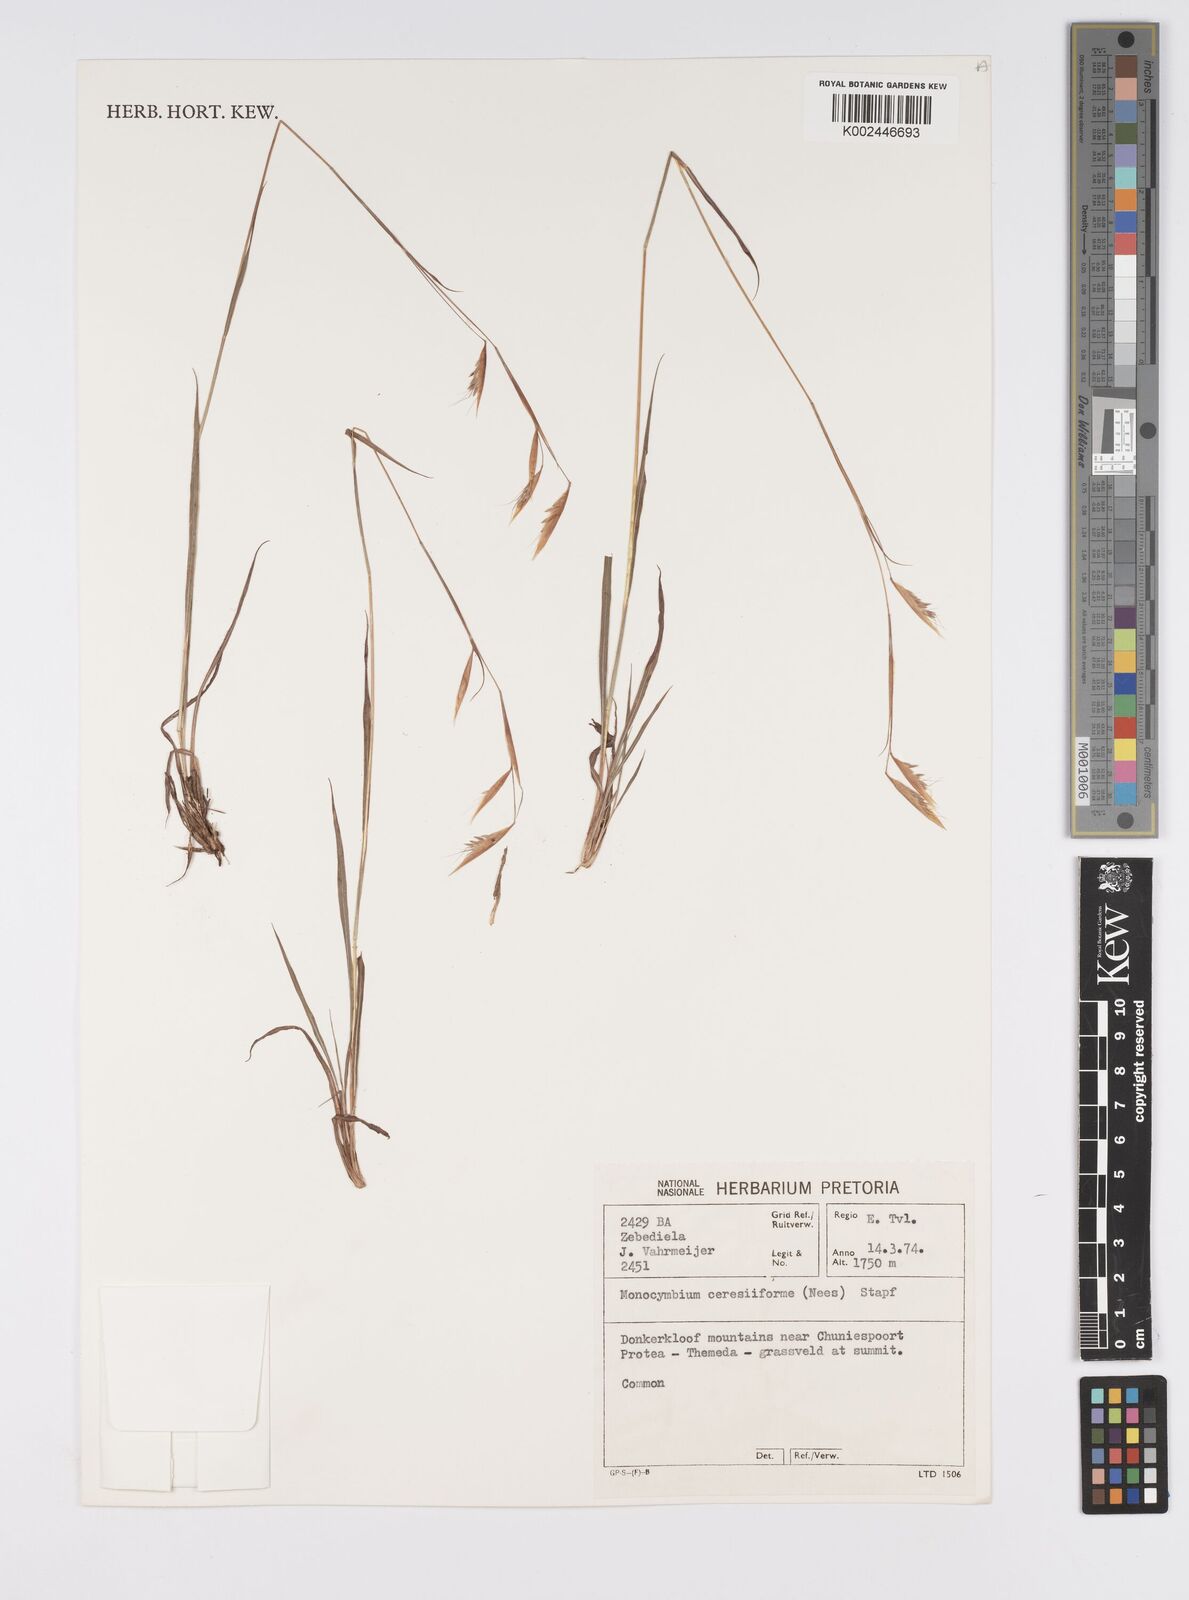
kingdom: Plantae
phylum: Tracheophyta
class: Liliopsida
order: Poales
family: Poaceae
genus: Monocymbium
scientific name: Monocymbium ceresiiforme
